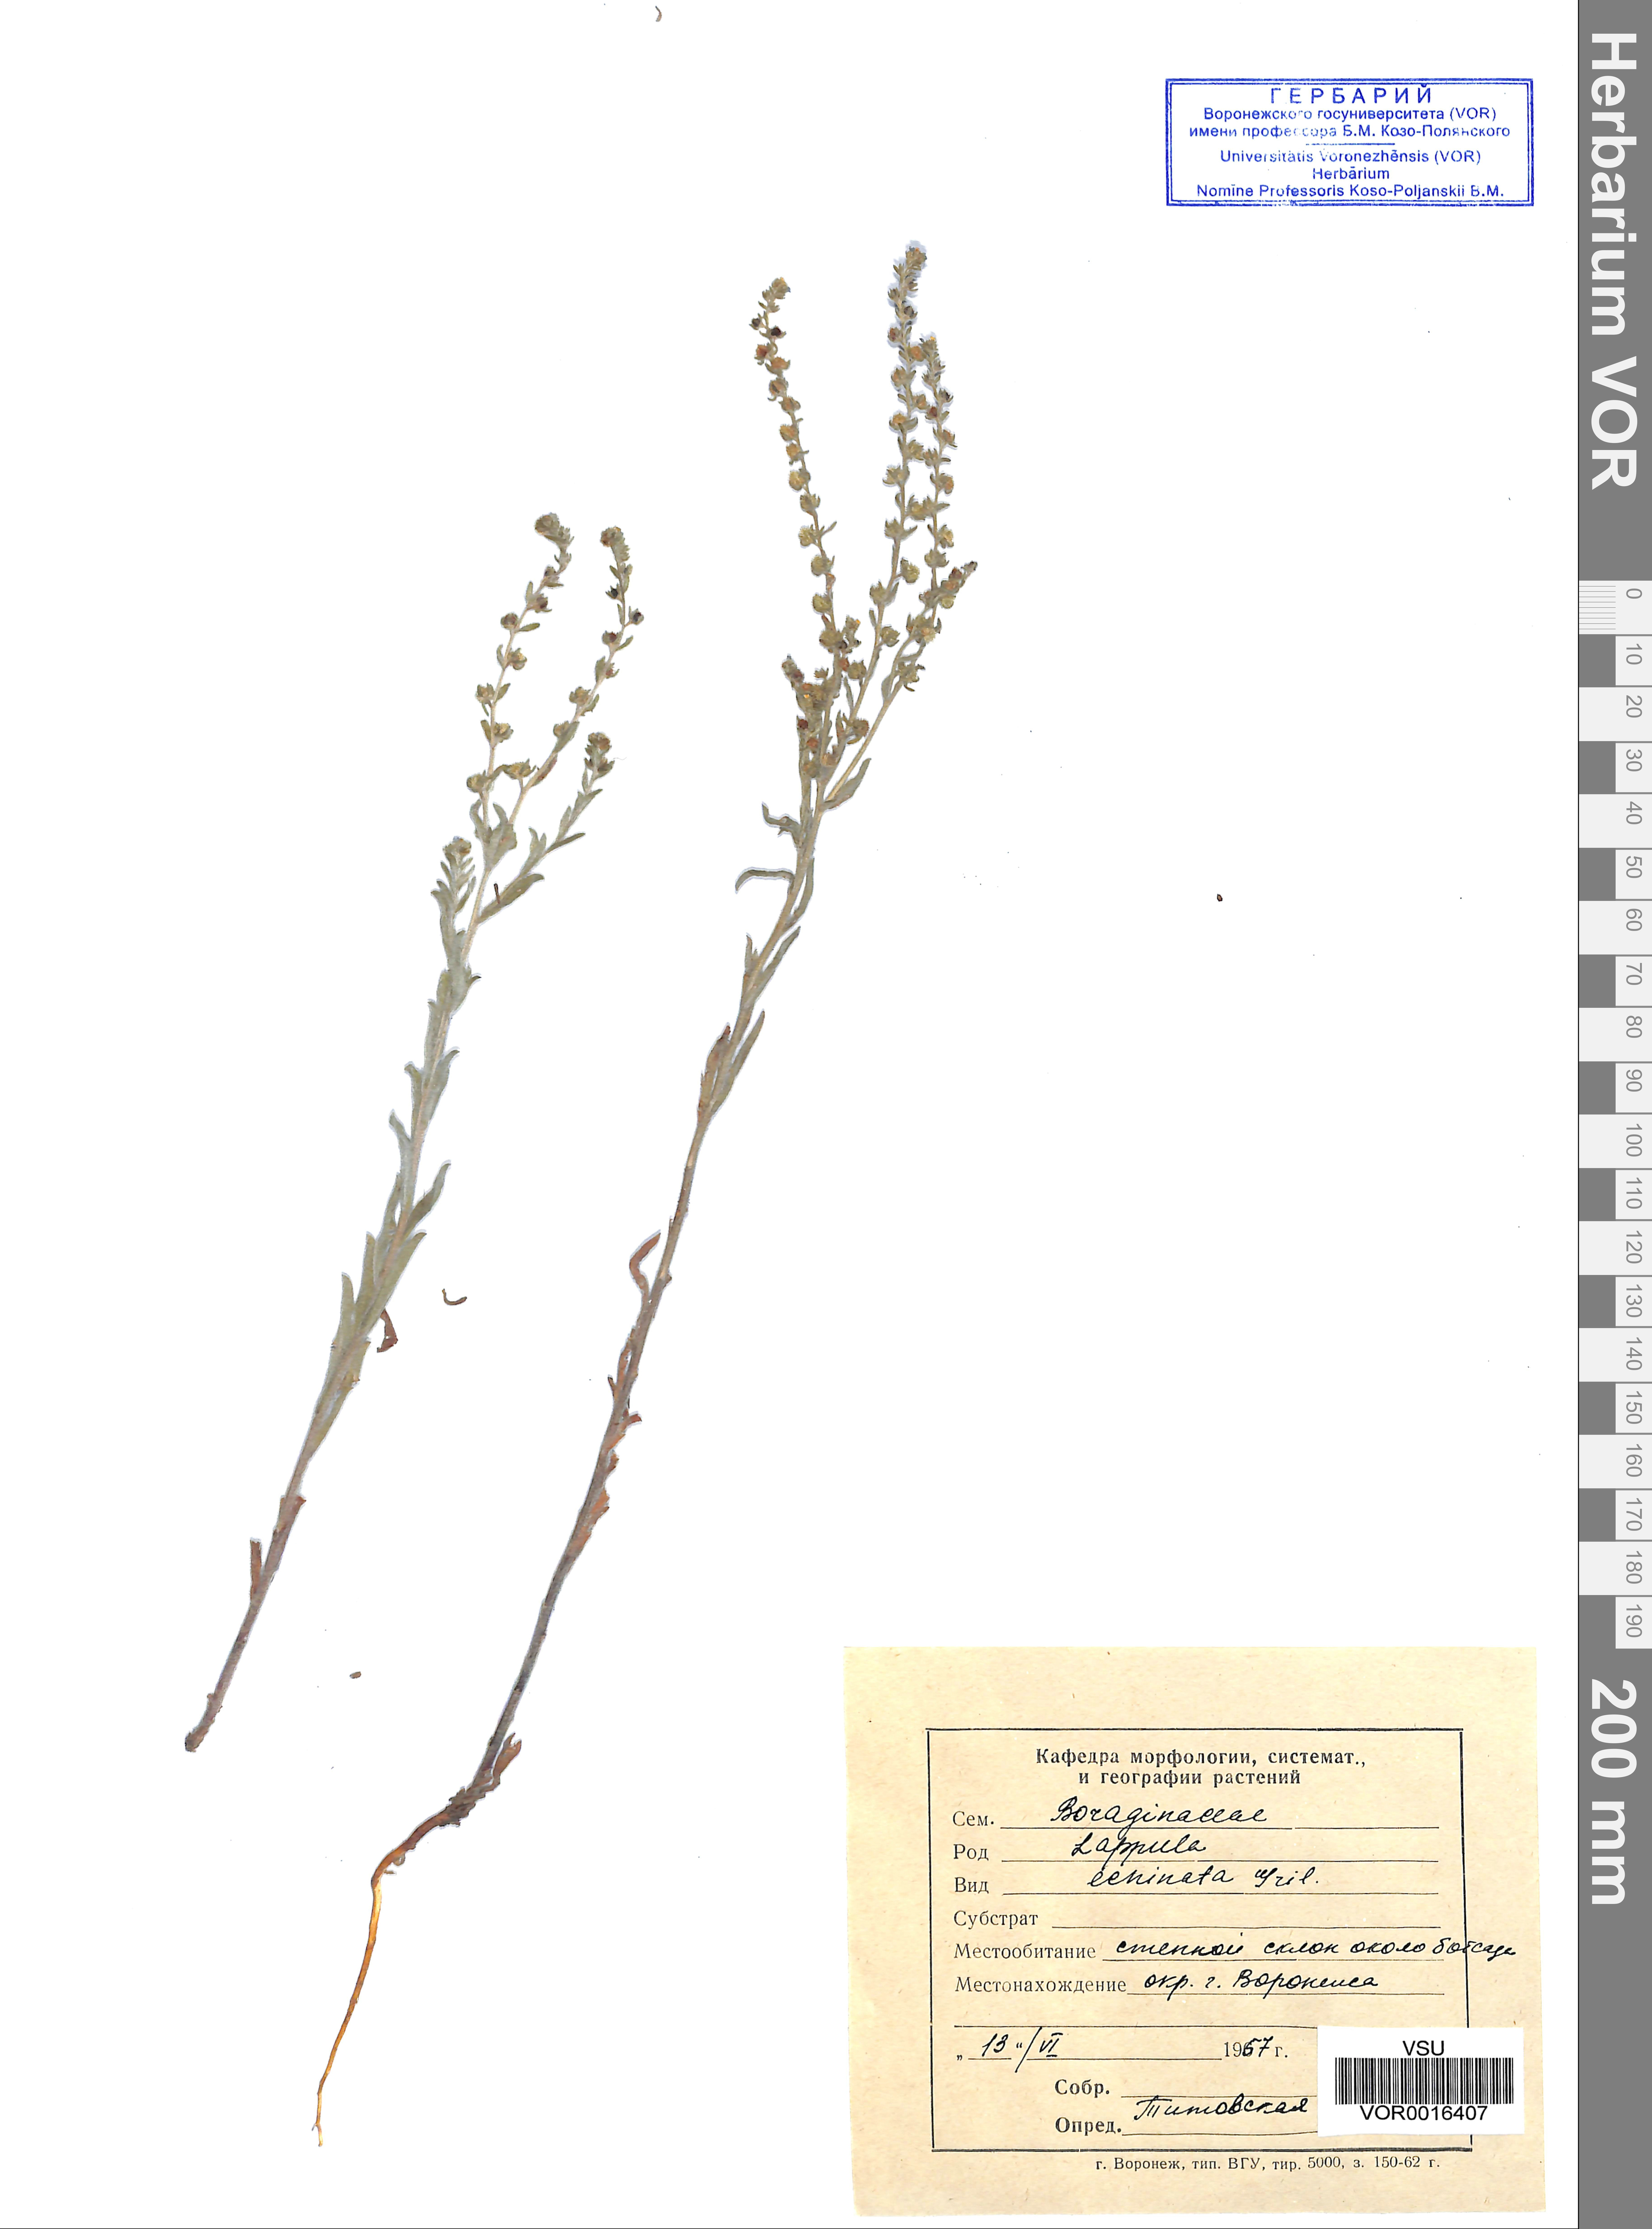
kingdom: Plantae
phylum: Tracheophyta
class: Magnoliopsida
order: Boraginales
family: Boraginaceae
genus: Lappula
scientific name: Lappula squarrosa
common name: European stickseed
